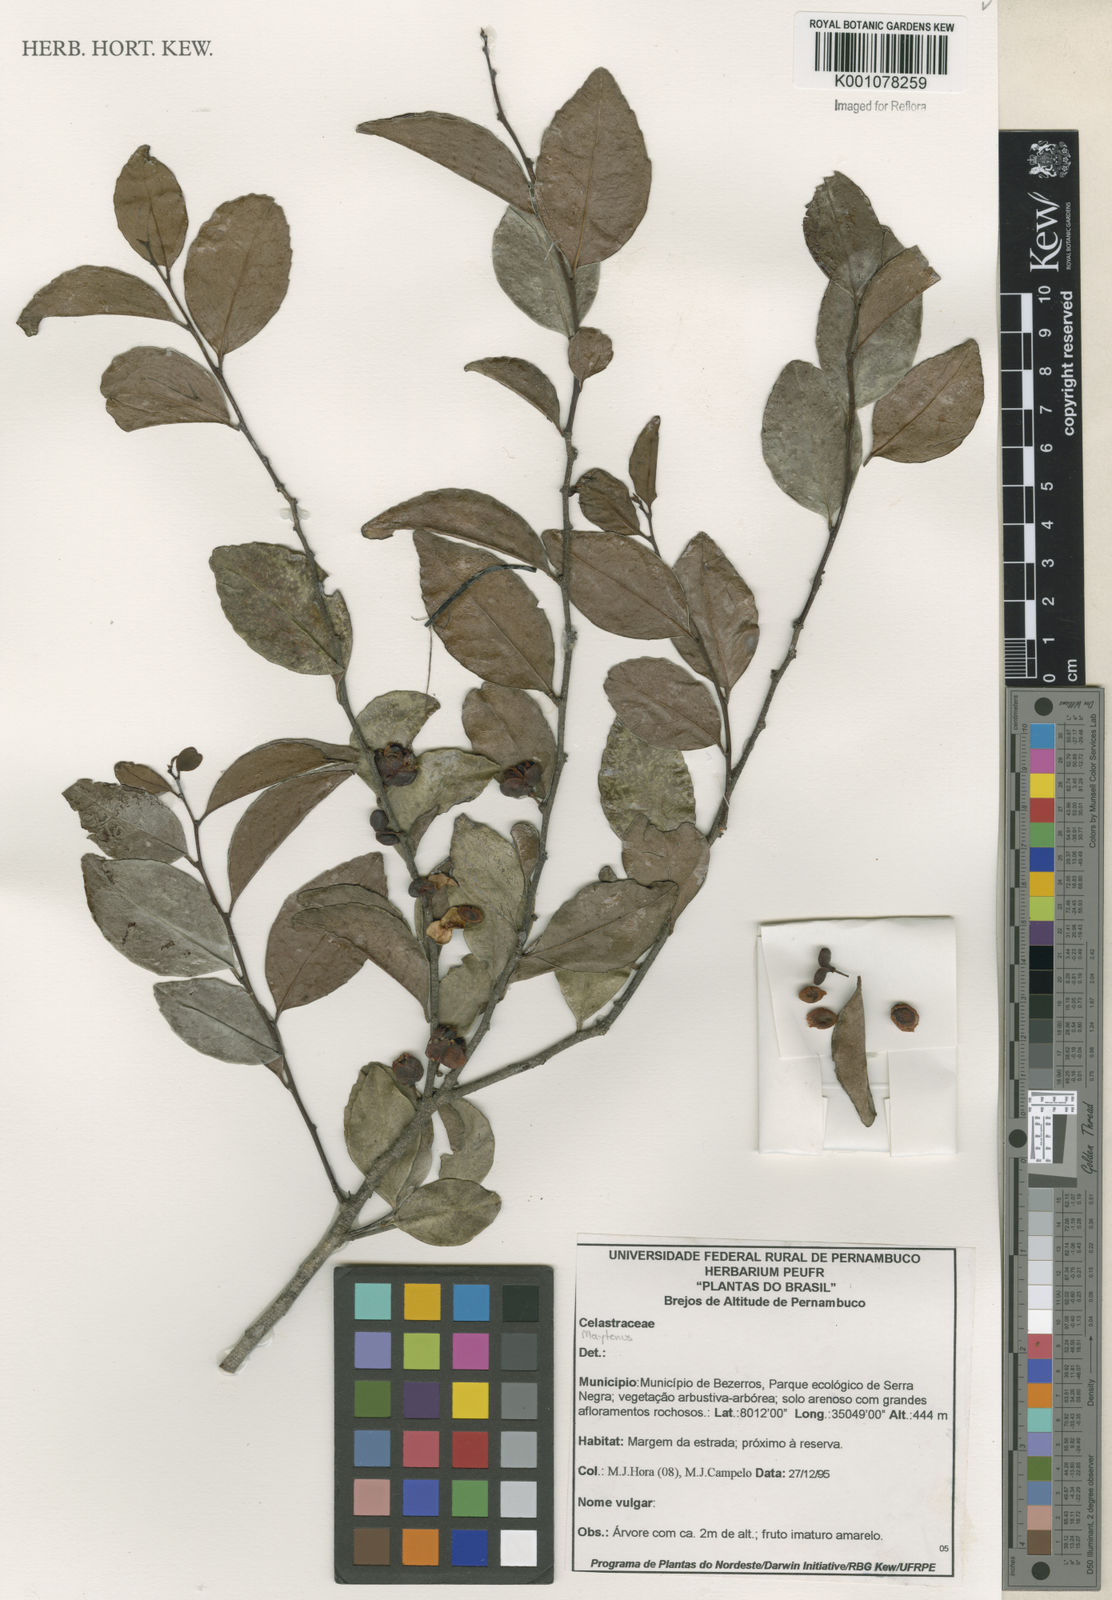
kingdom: Plantae
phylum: Tracheophyta
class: Magnoliopsida
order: Celastrales
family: Celastraceae
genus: Maytenus
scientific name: Maytenus
